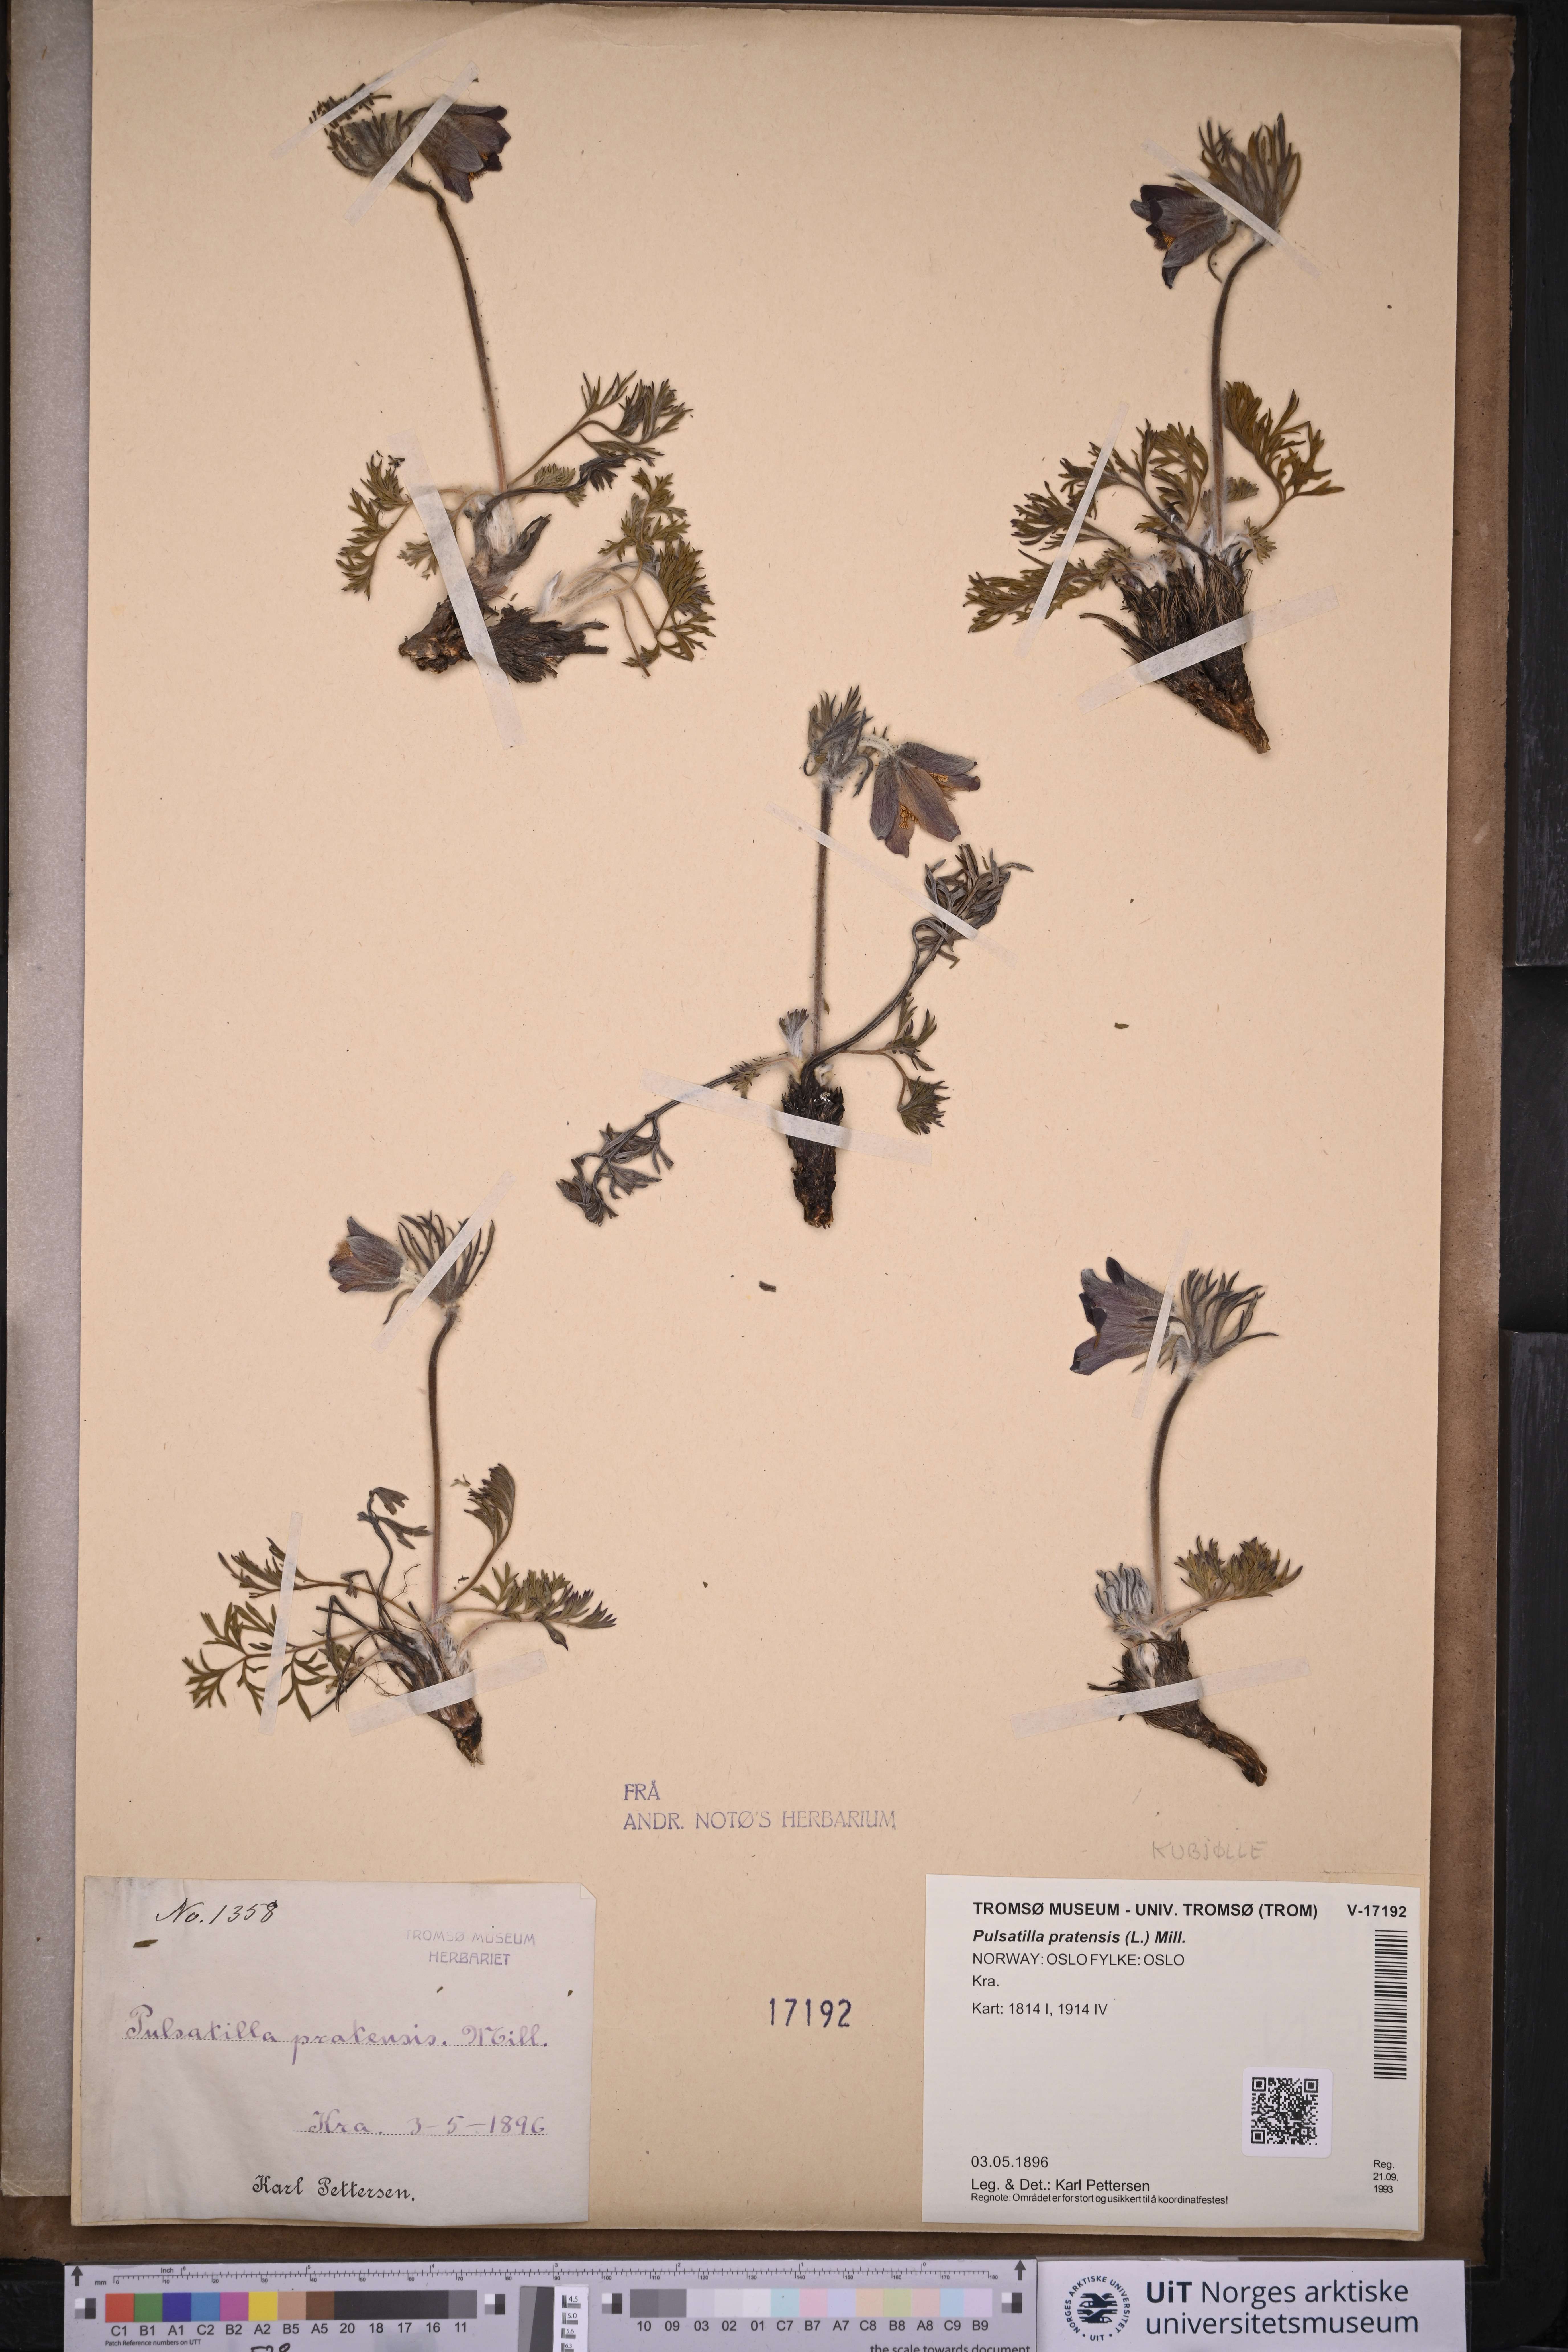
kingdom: Plantae
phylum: Tracheophyta
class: Magnoliopsida
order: Ranunculales
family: Ranunculaceae
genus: Pulsatilla
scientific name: Pulsatilla pratensis
